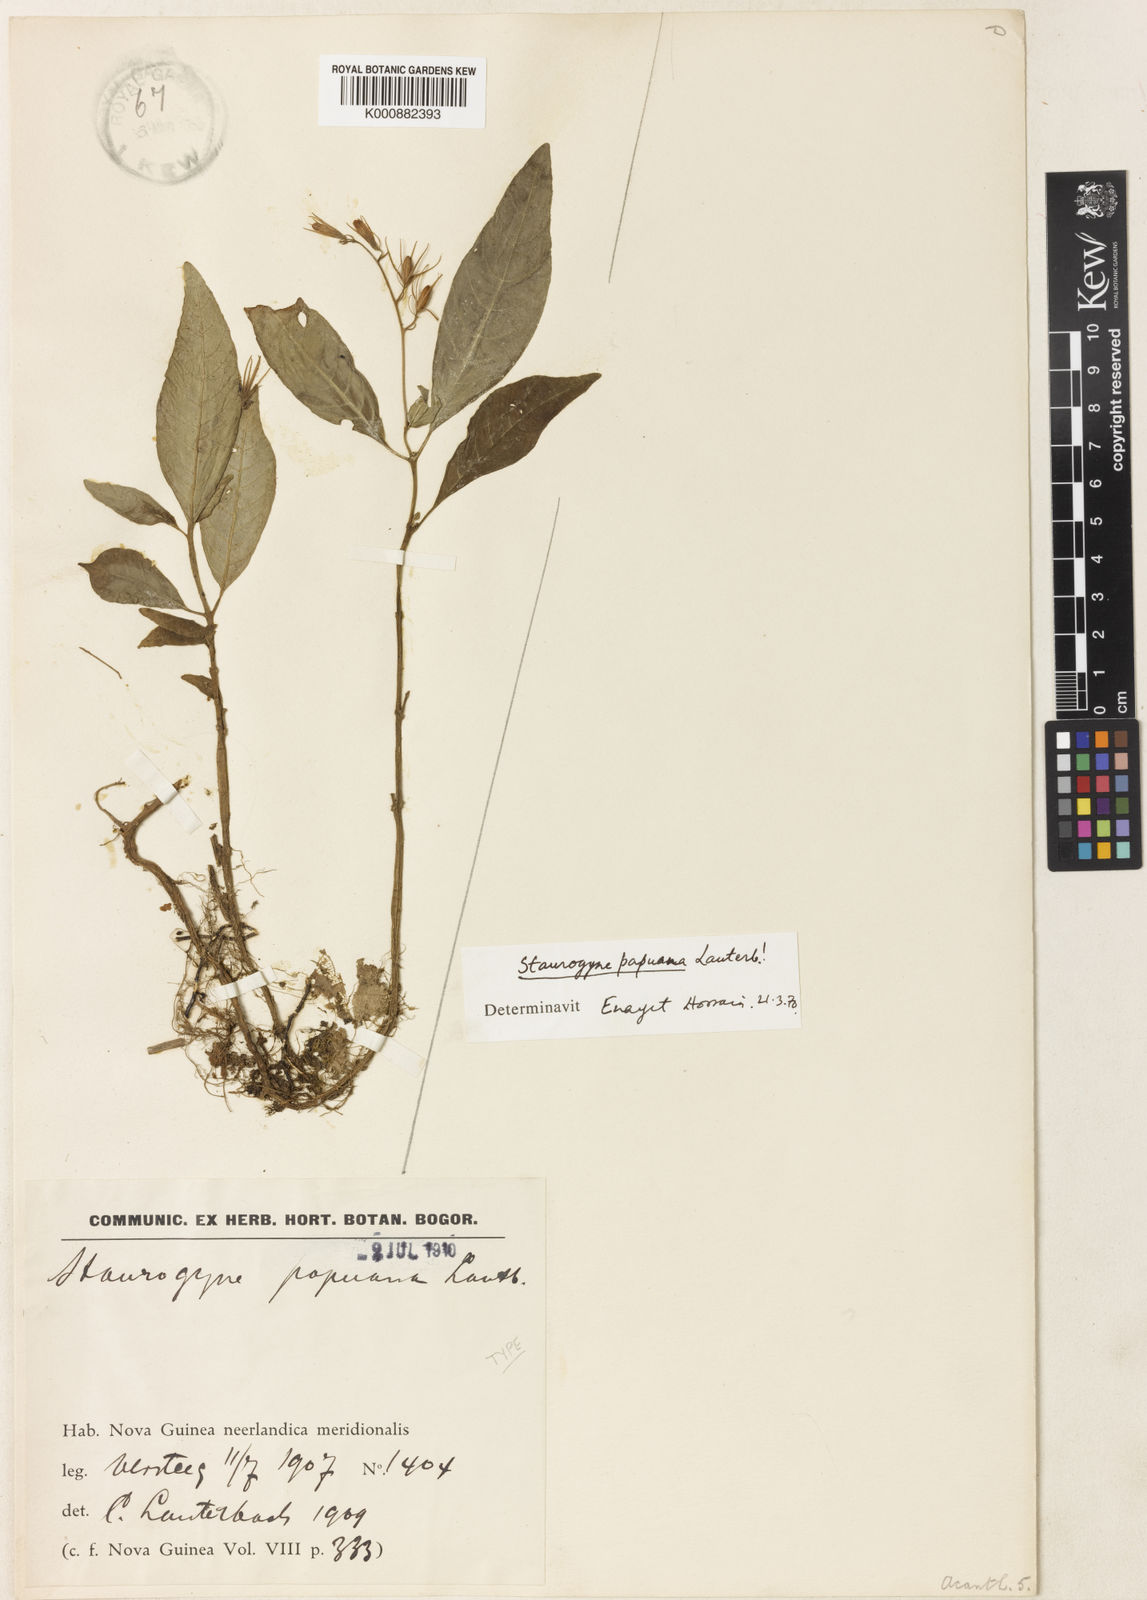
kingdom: Plantae
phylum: Tracheophyta
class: Magnoliopsida
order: Lamiales
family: Acanthaceae
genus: Staurogyne
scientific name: Staurogyne papuana
